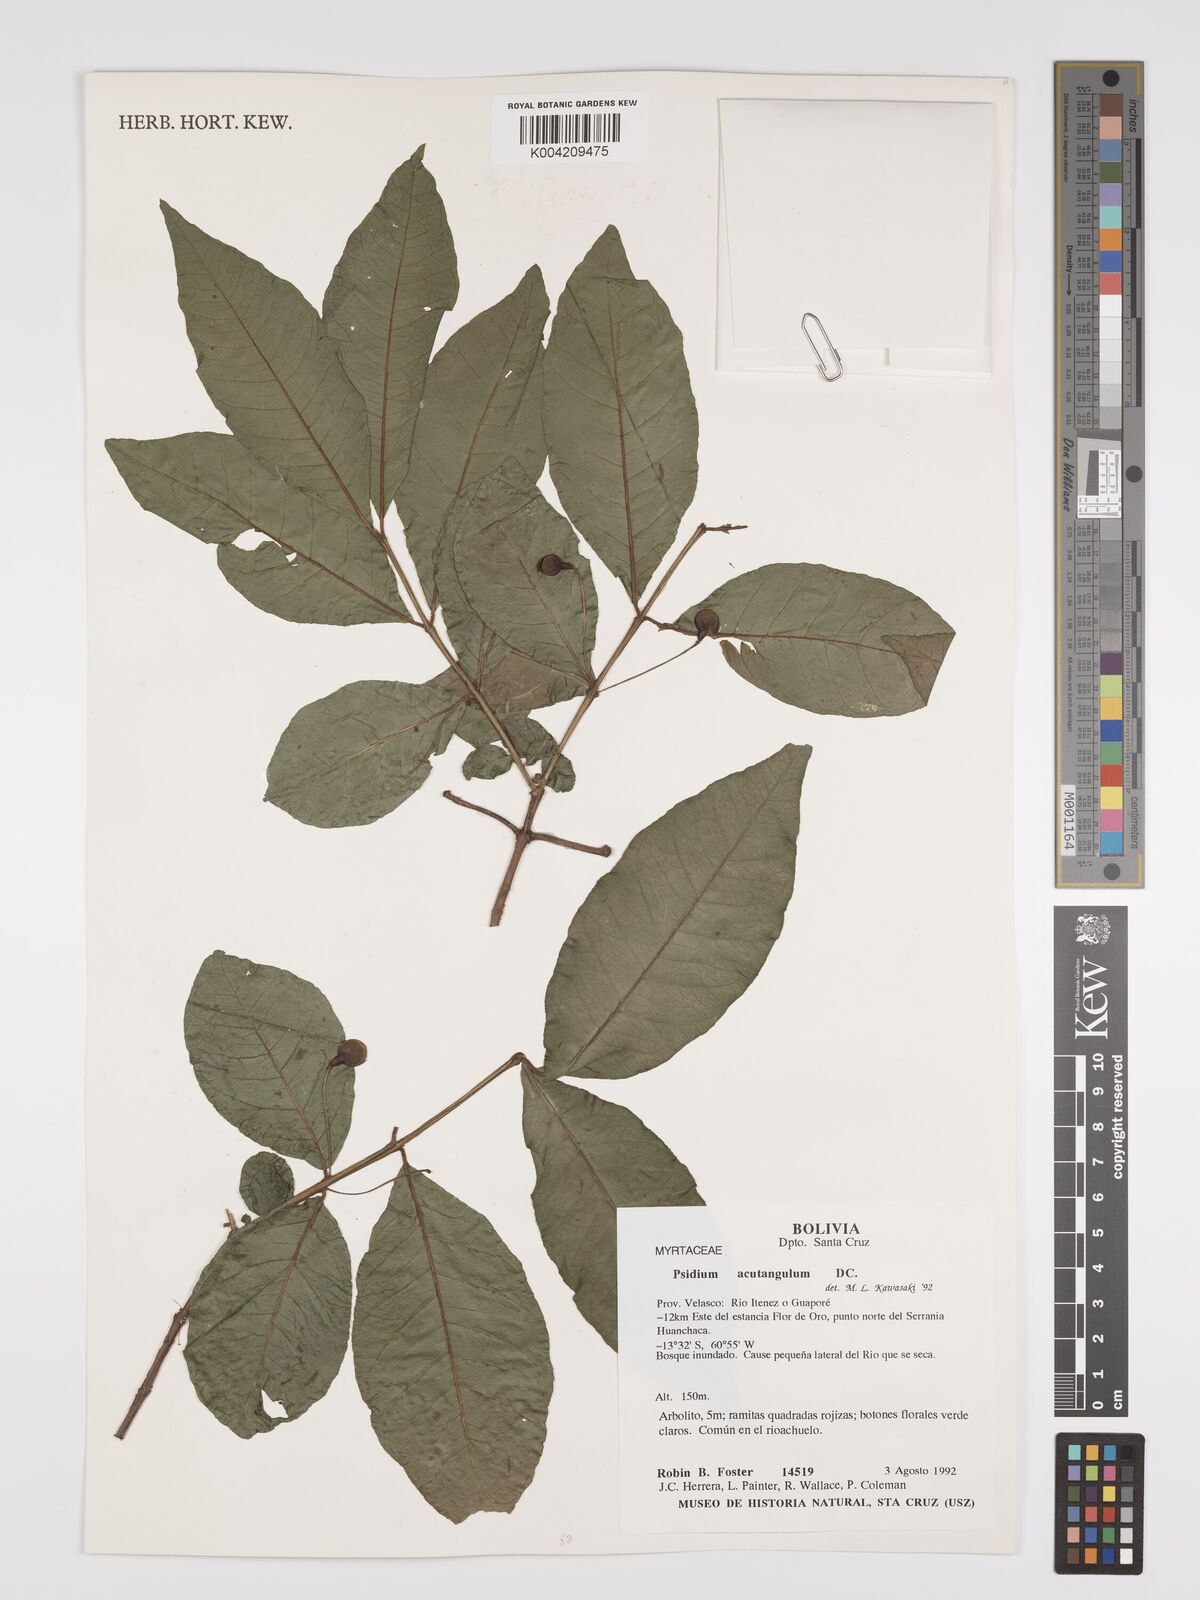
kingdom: Plantae
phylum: Tracheophyta
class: Magnoliopsida
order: Myrtales
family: Myrtaceae
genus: Psidium
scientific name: Psidium acutangulum
